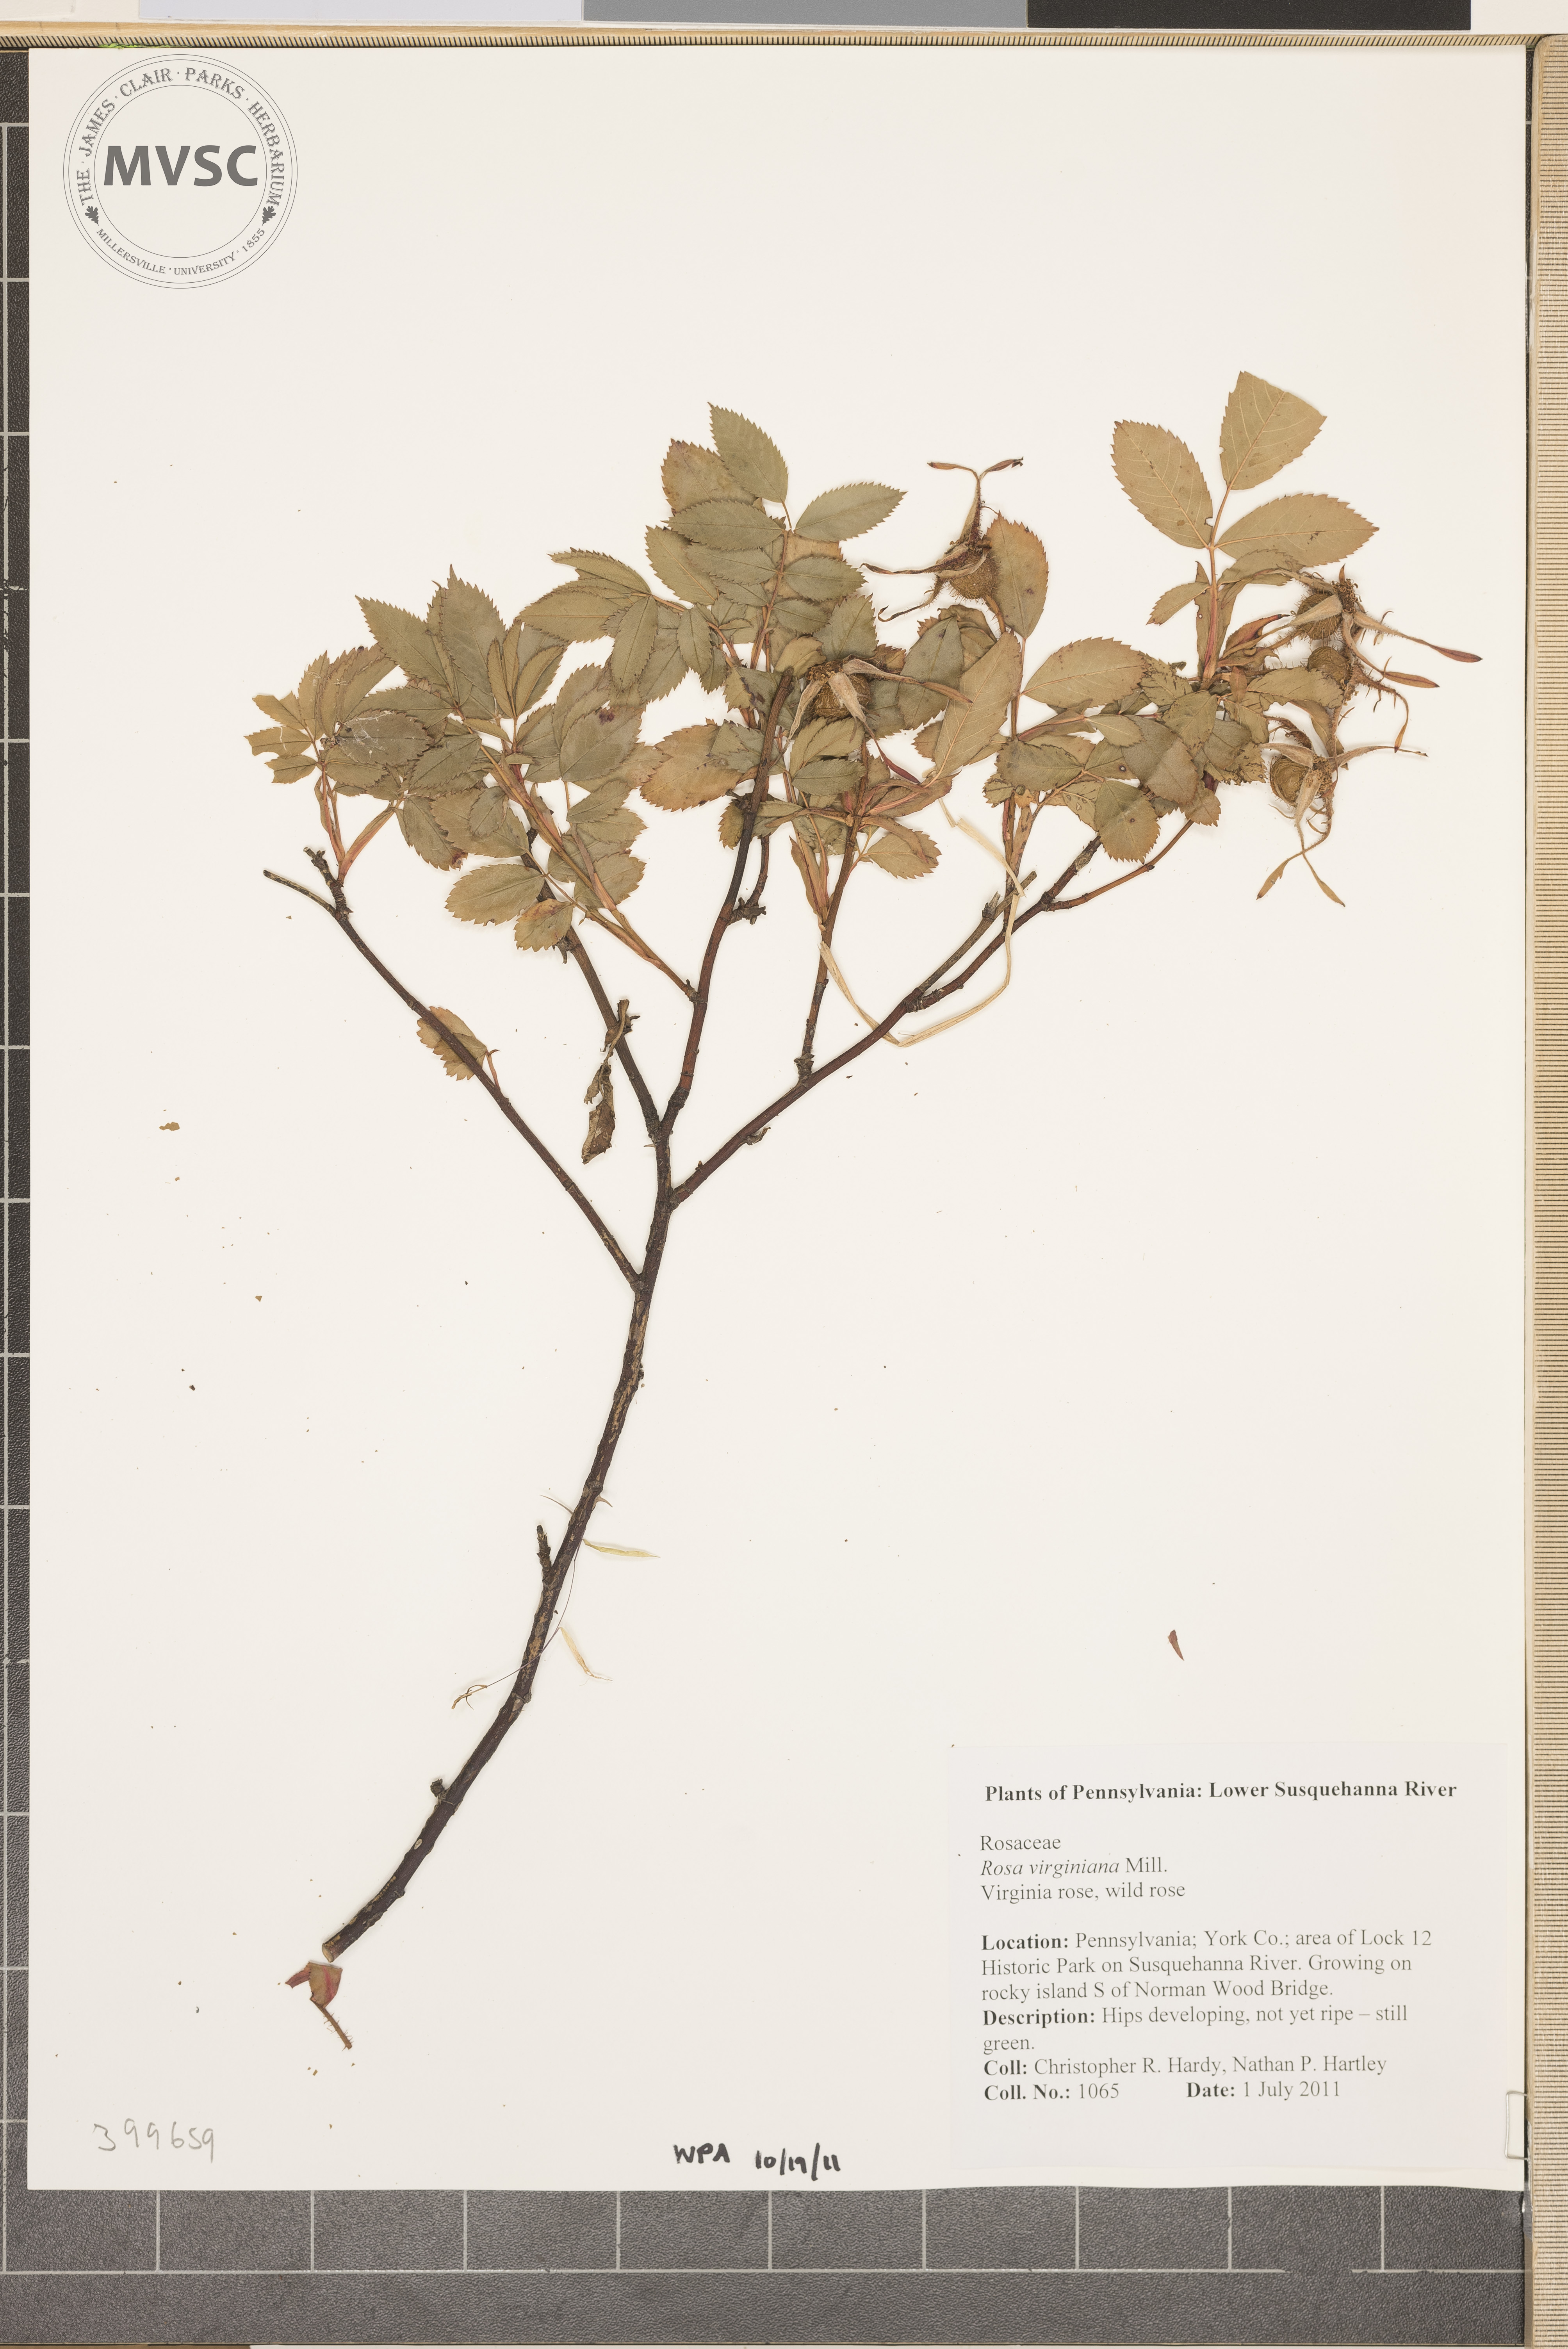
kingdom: Plantae
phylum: Tracheophyta
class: Magnoliopsida
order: Rosales
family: Rosaceae
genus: Rosa
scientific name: Rosa virginiana
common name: Wild rose
